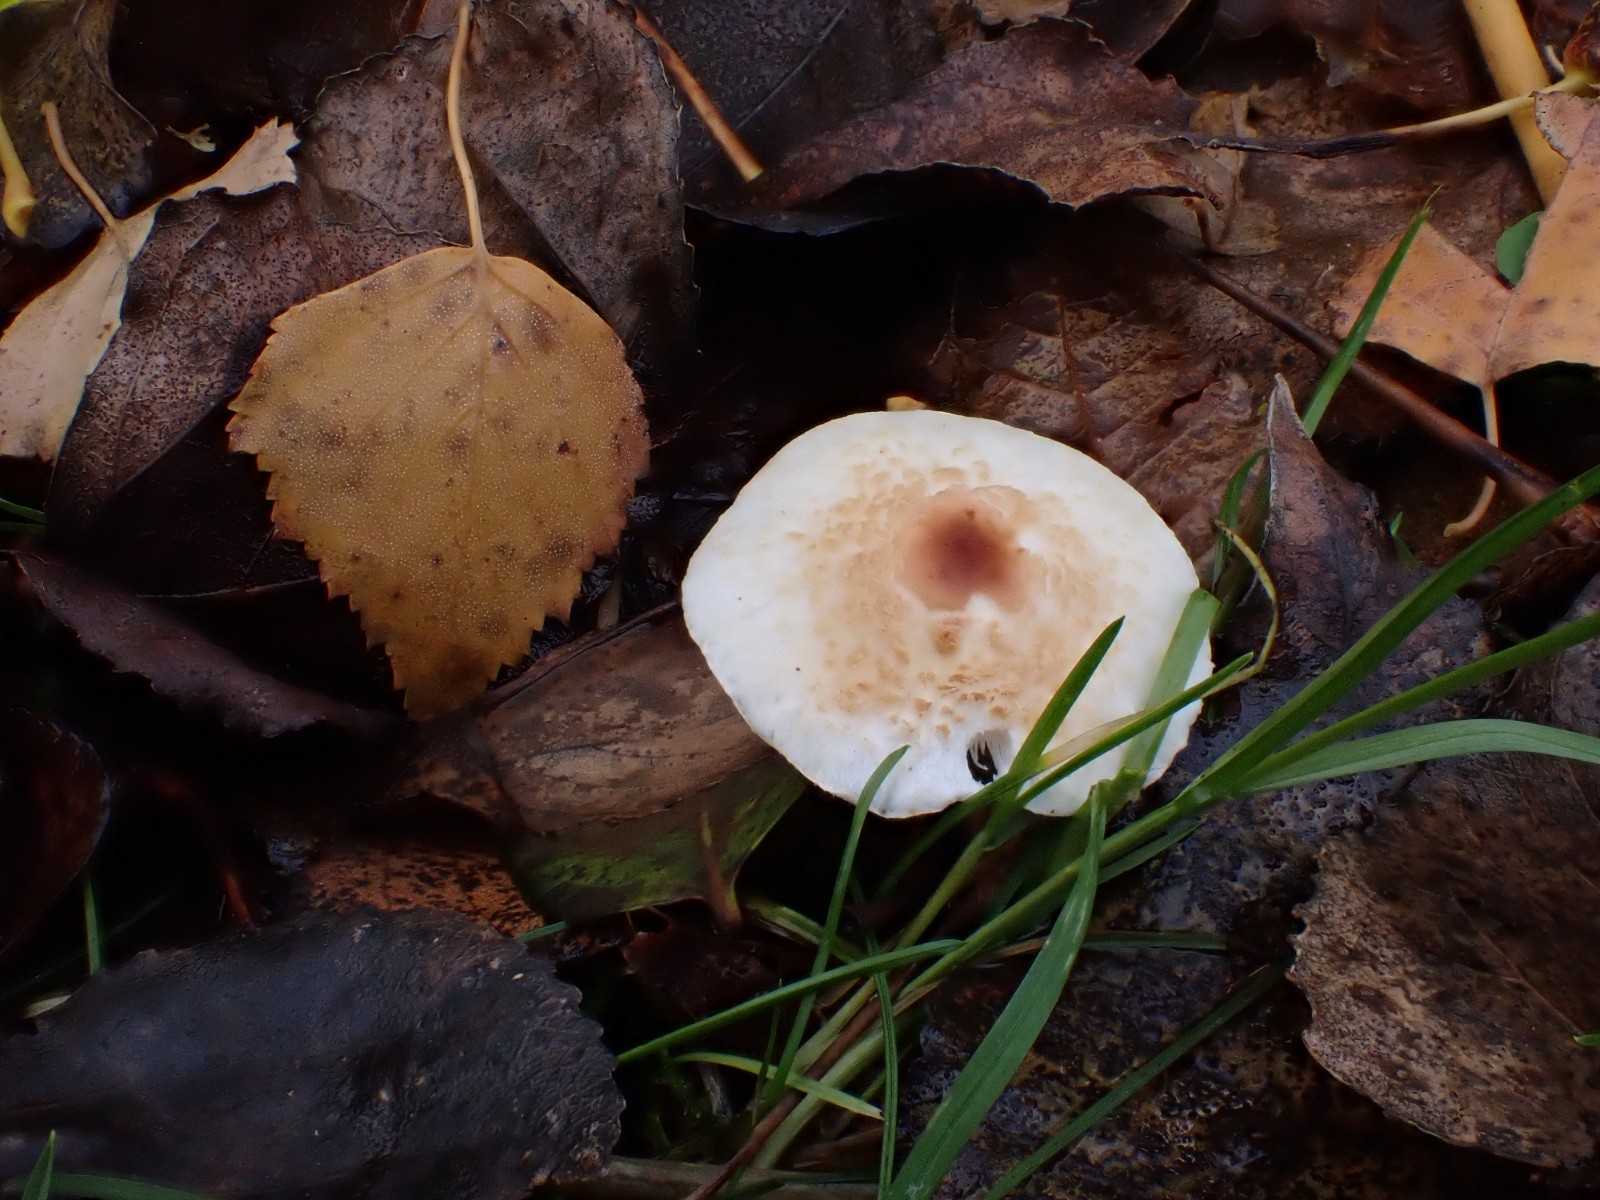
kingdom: Fungi
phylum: Basidiomycota
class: Agaricomycetes
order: Agaricales
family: Agaricaceae
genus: Lepiota
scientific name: Lepiota cristata
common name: stinkende parasolhat
